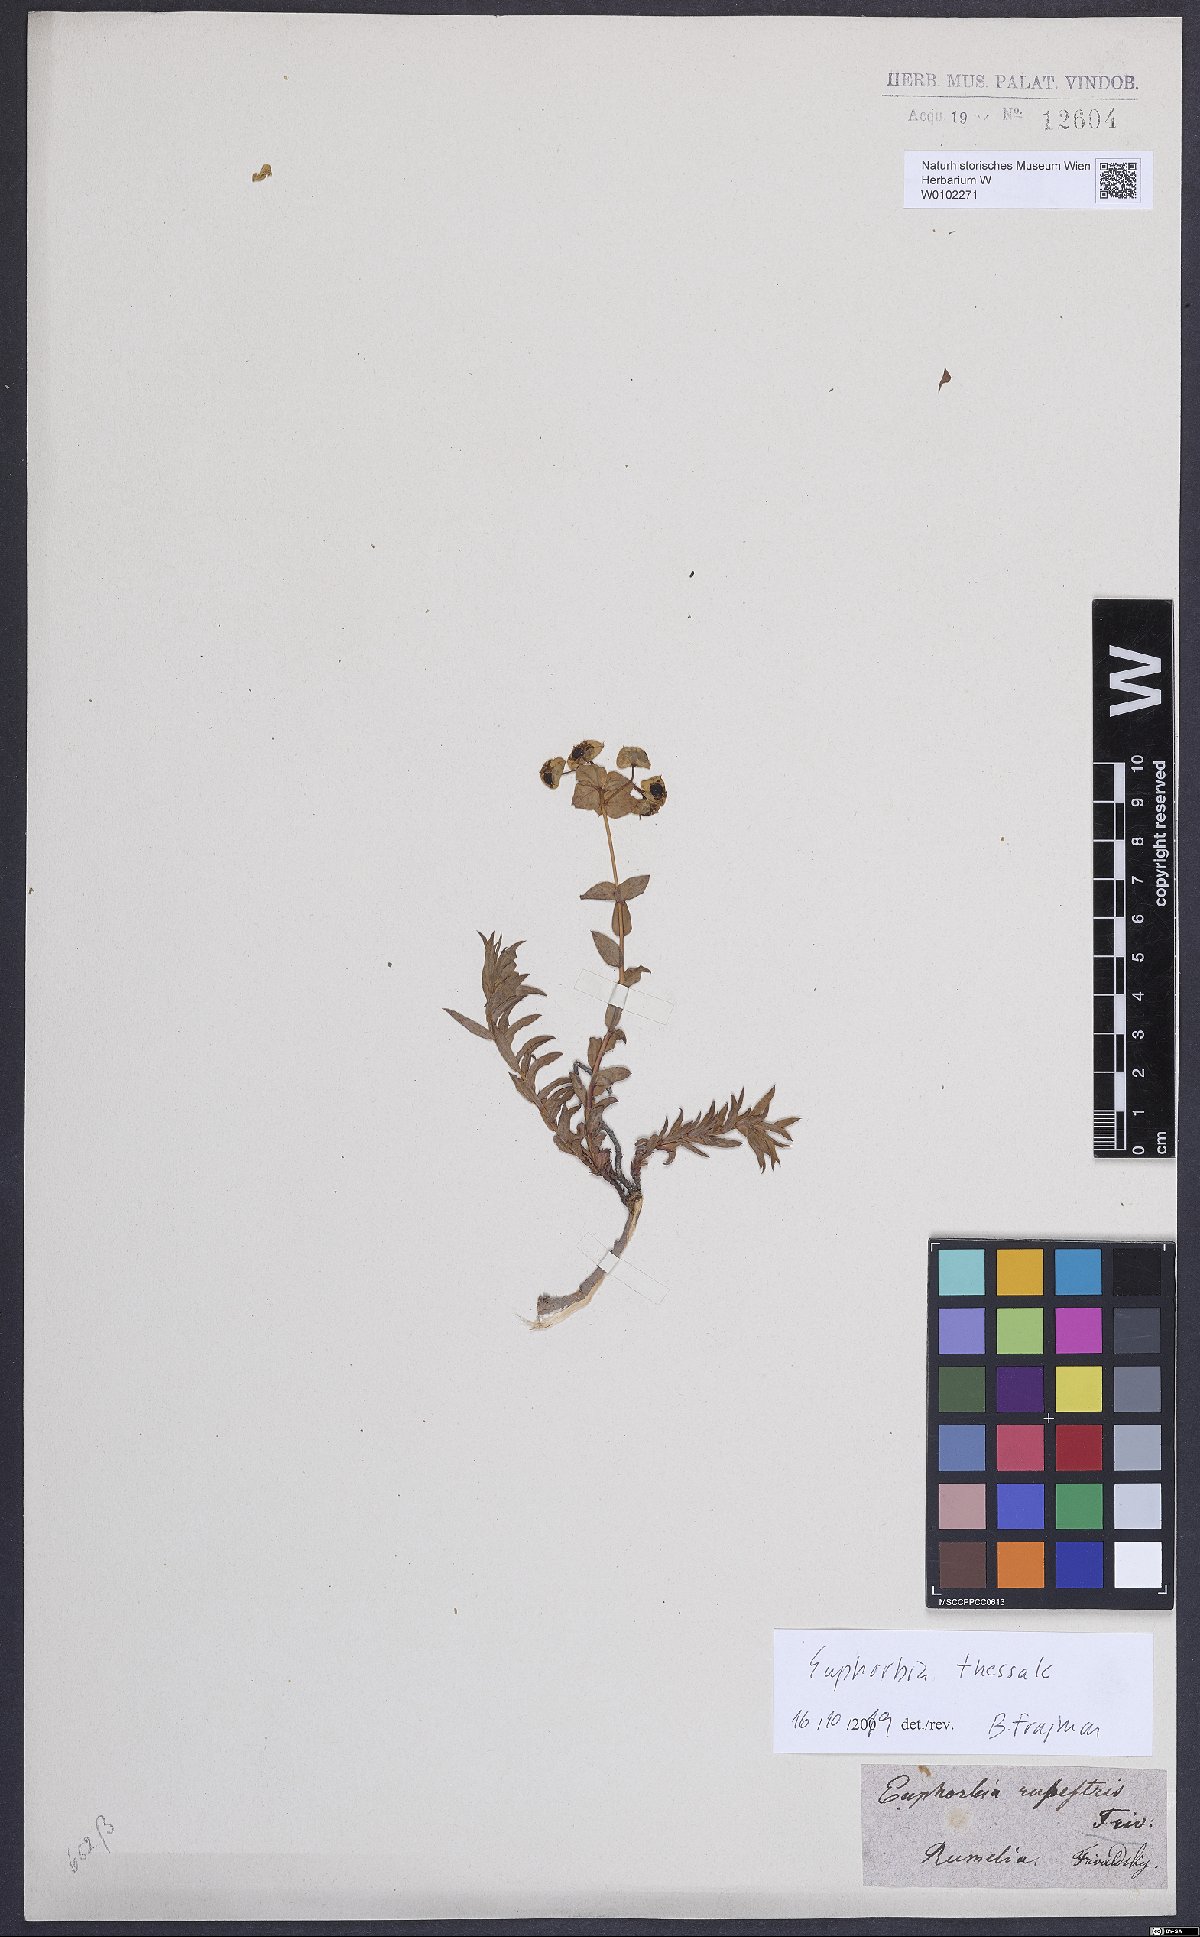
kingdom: Plantae
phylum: Tracheophyta
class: Magnoliopsida
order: Malpighiales
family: Euphorbiaceae
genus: Euphorbia
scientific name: Euphorbia barrelieri
